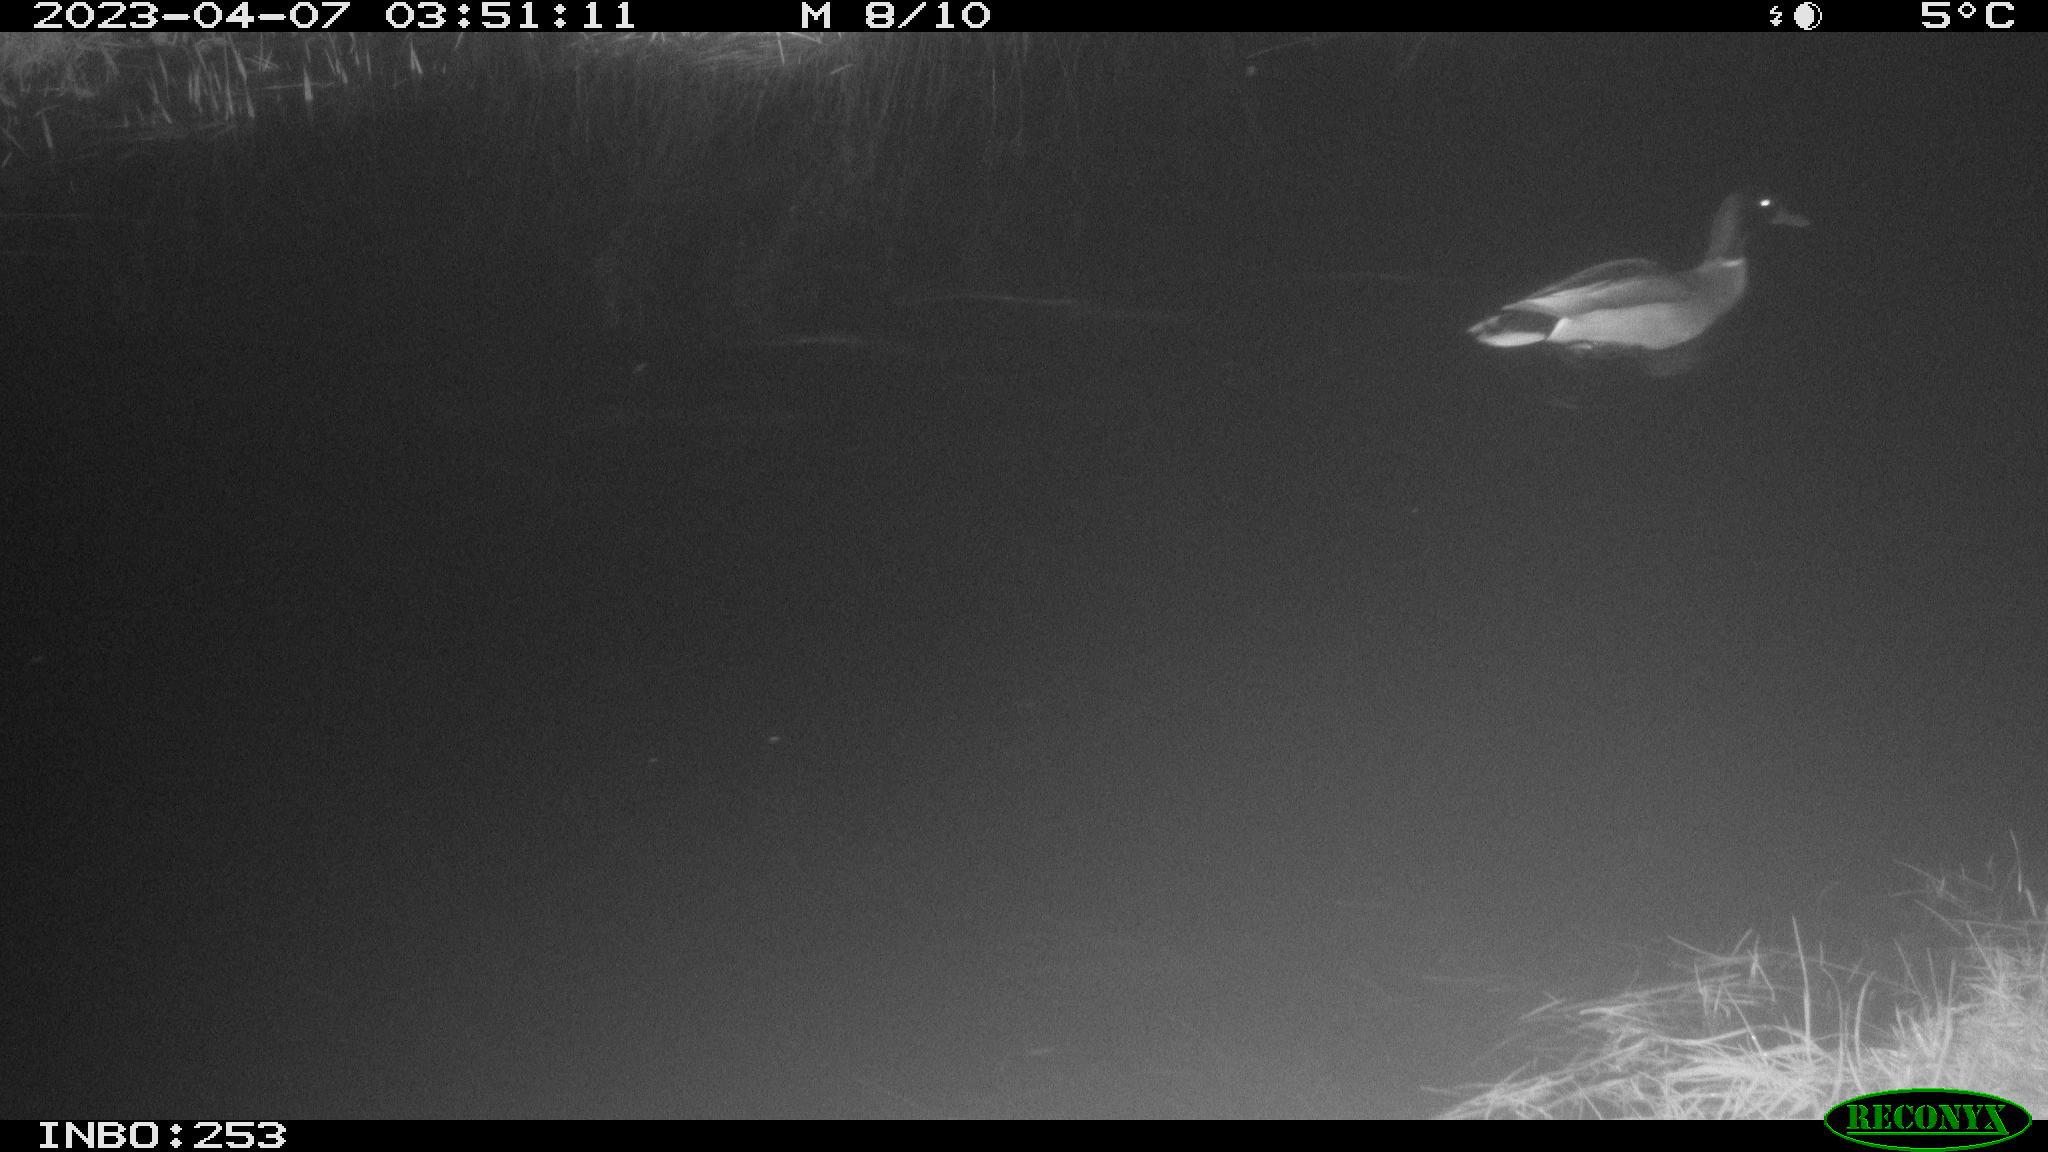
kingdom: Animalia
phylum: Chordata
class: Aves
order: Anseriformes
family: Anatidae
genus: Anas
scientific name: Anas
